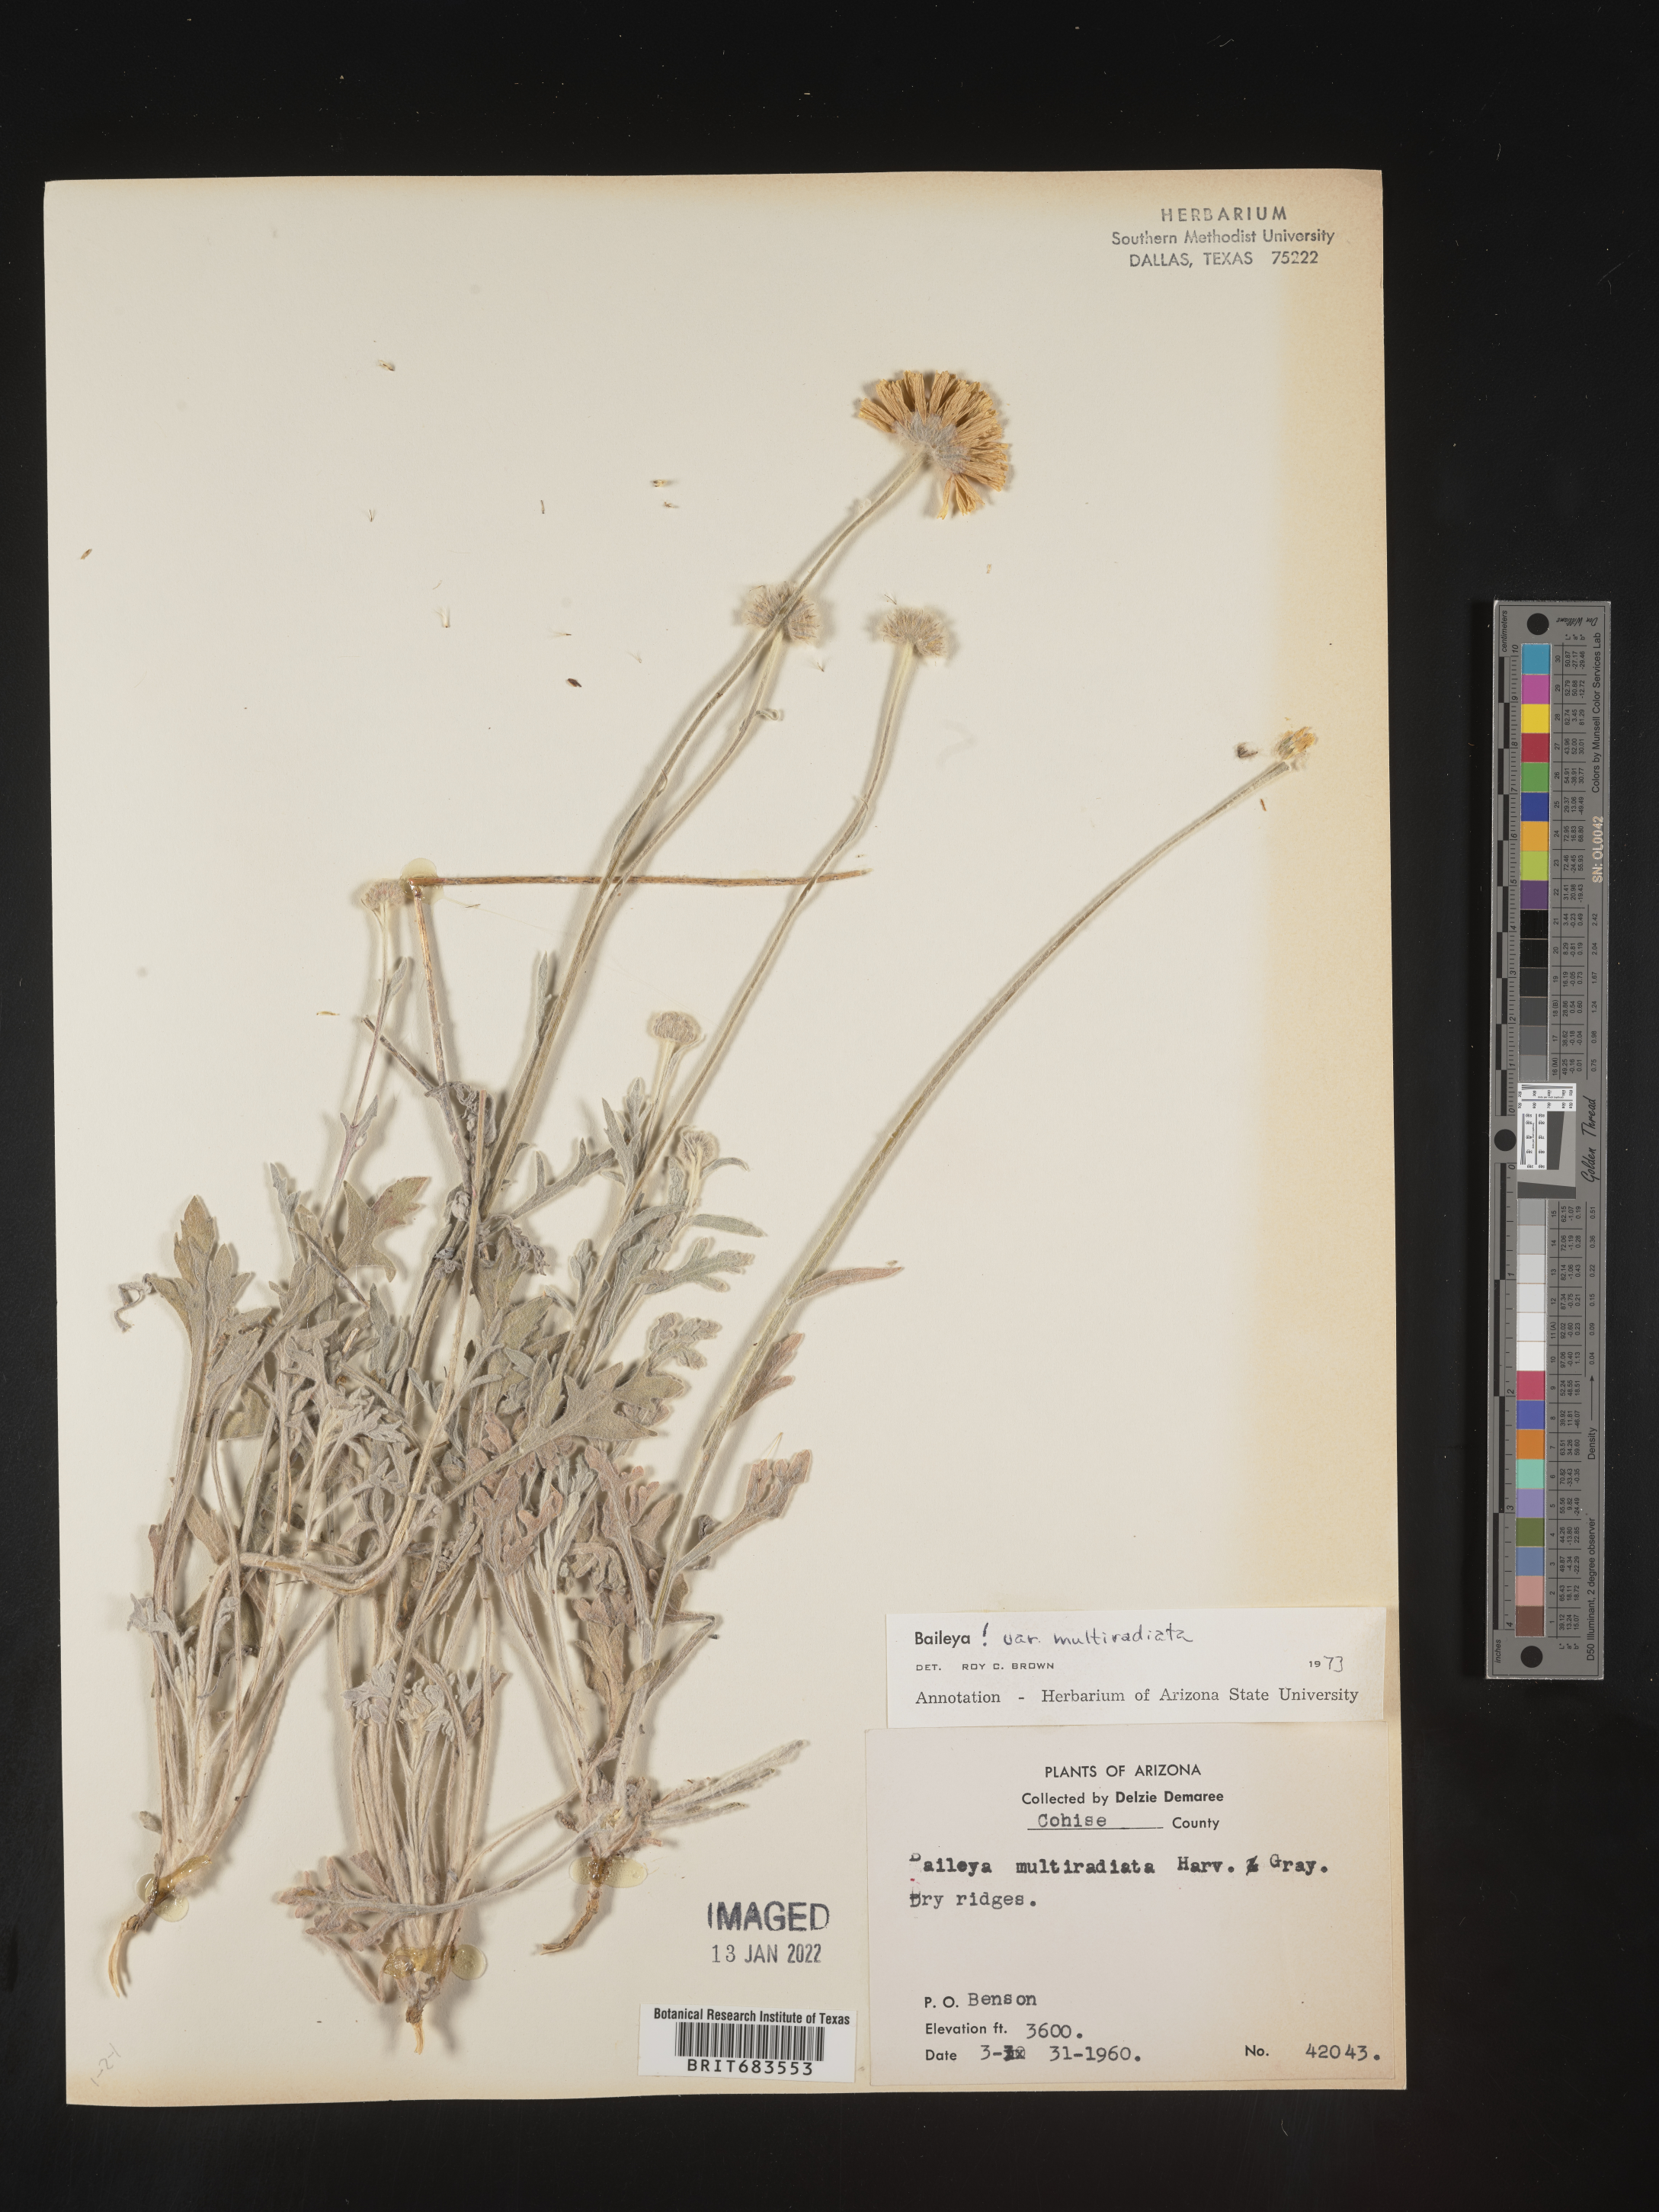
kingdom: Plantae
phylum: Tracheophyta
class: Magnoliopsida
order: Asterales
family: Asteraceae
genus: Baileya
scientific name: Baileya multiradiata
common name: Desert-marigold
